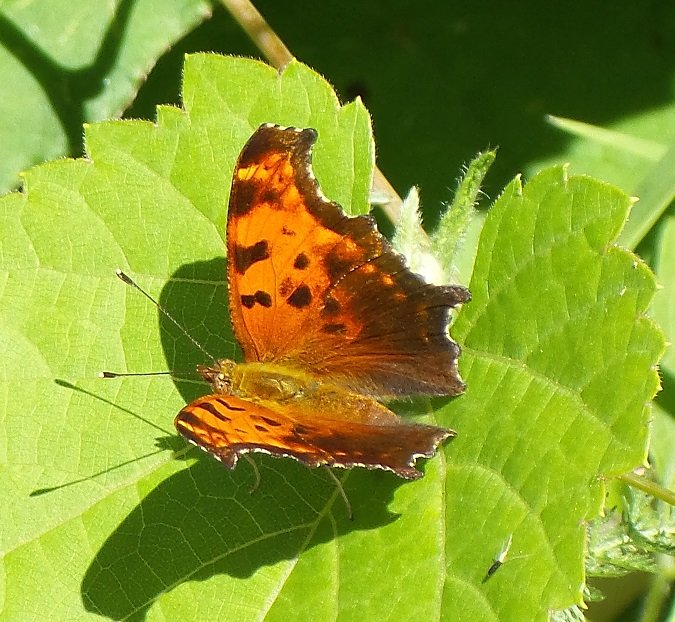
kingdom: Animalia
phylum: Arthropoda
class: Insecta
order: Lepidoptera
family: Nymphalidae
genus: Polygonia
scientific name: Polygonia comma
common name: Eastern Comma
